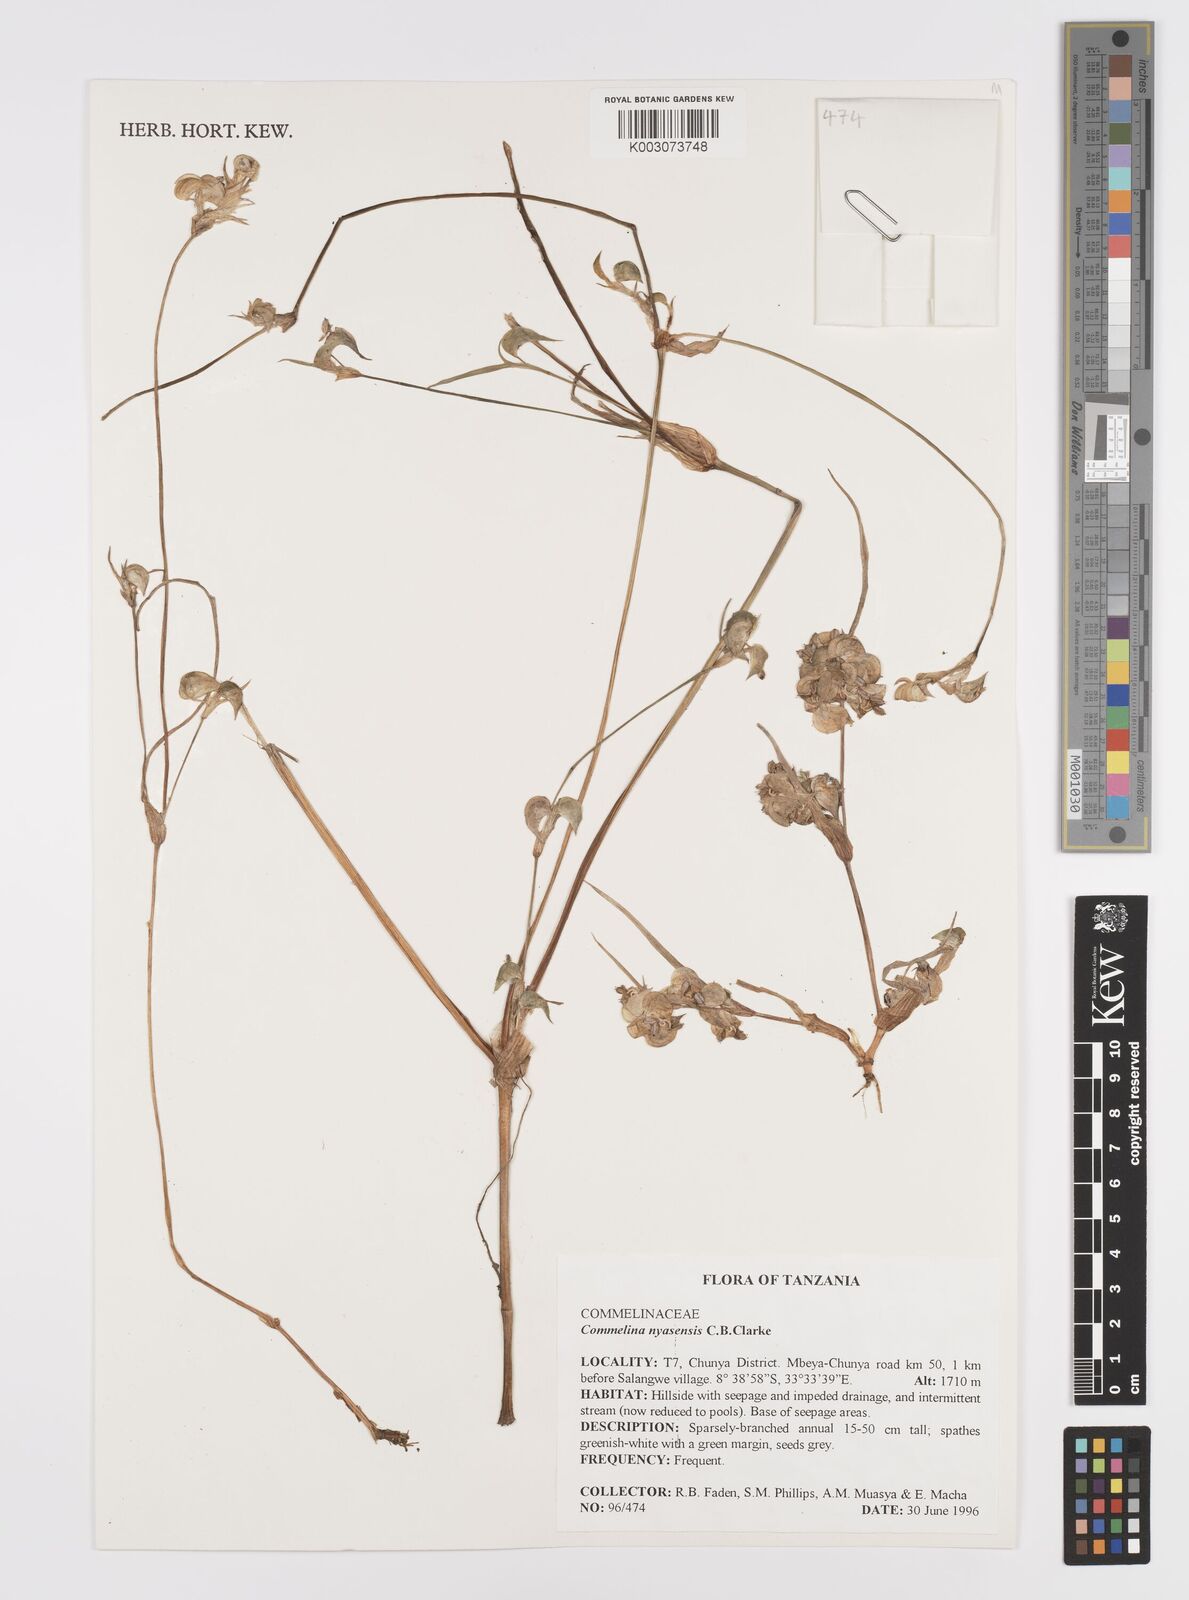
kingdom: Plantae
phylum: Tracheophyta
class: Liliopsida
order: Commelinales
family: Commelinaceae
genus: Commelina
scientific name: Commelina nyasensis
